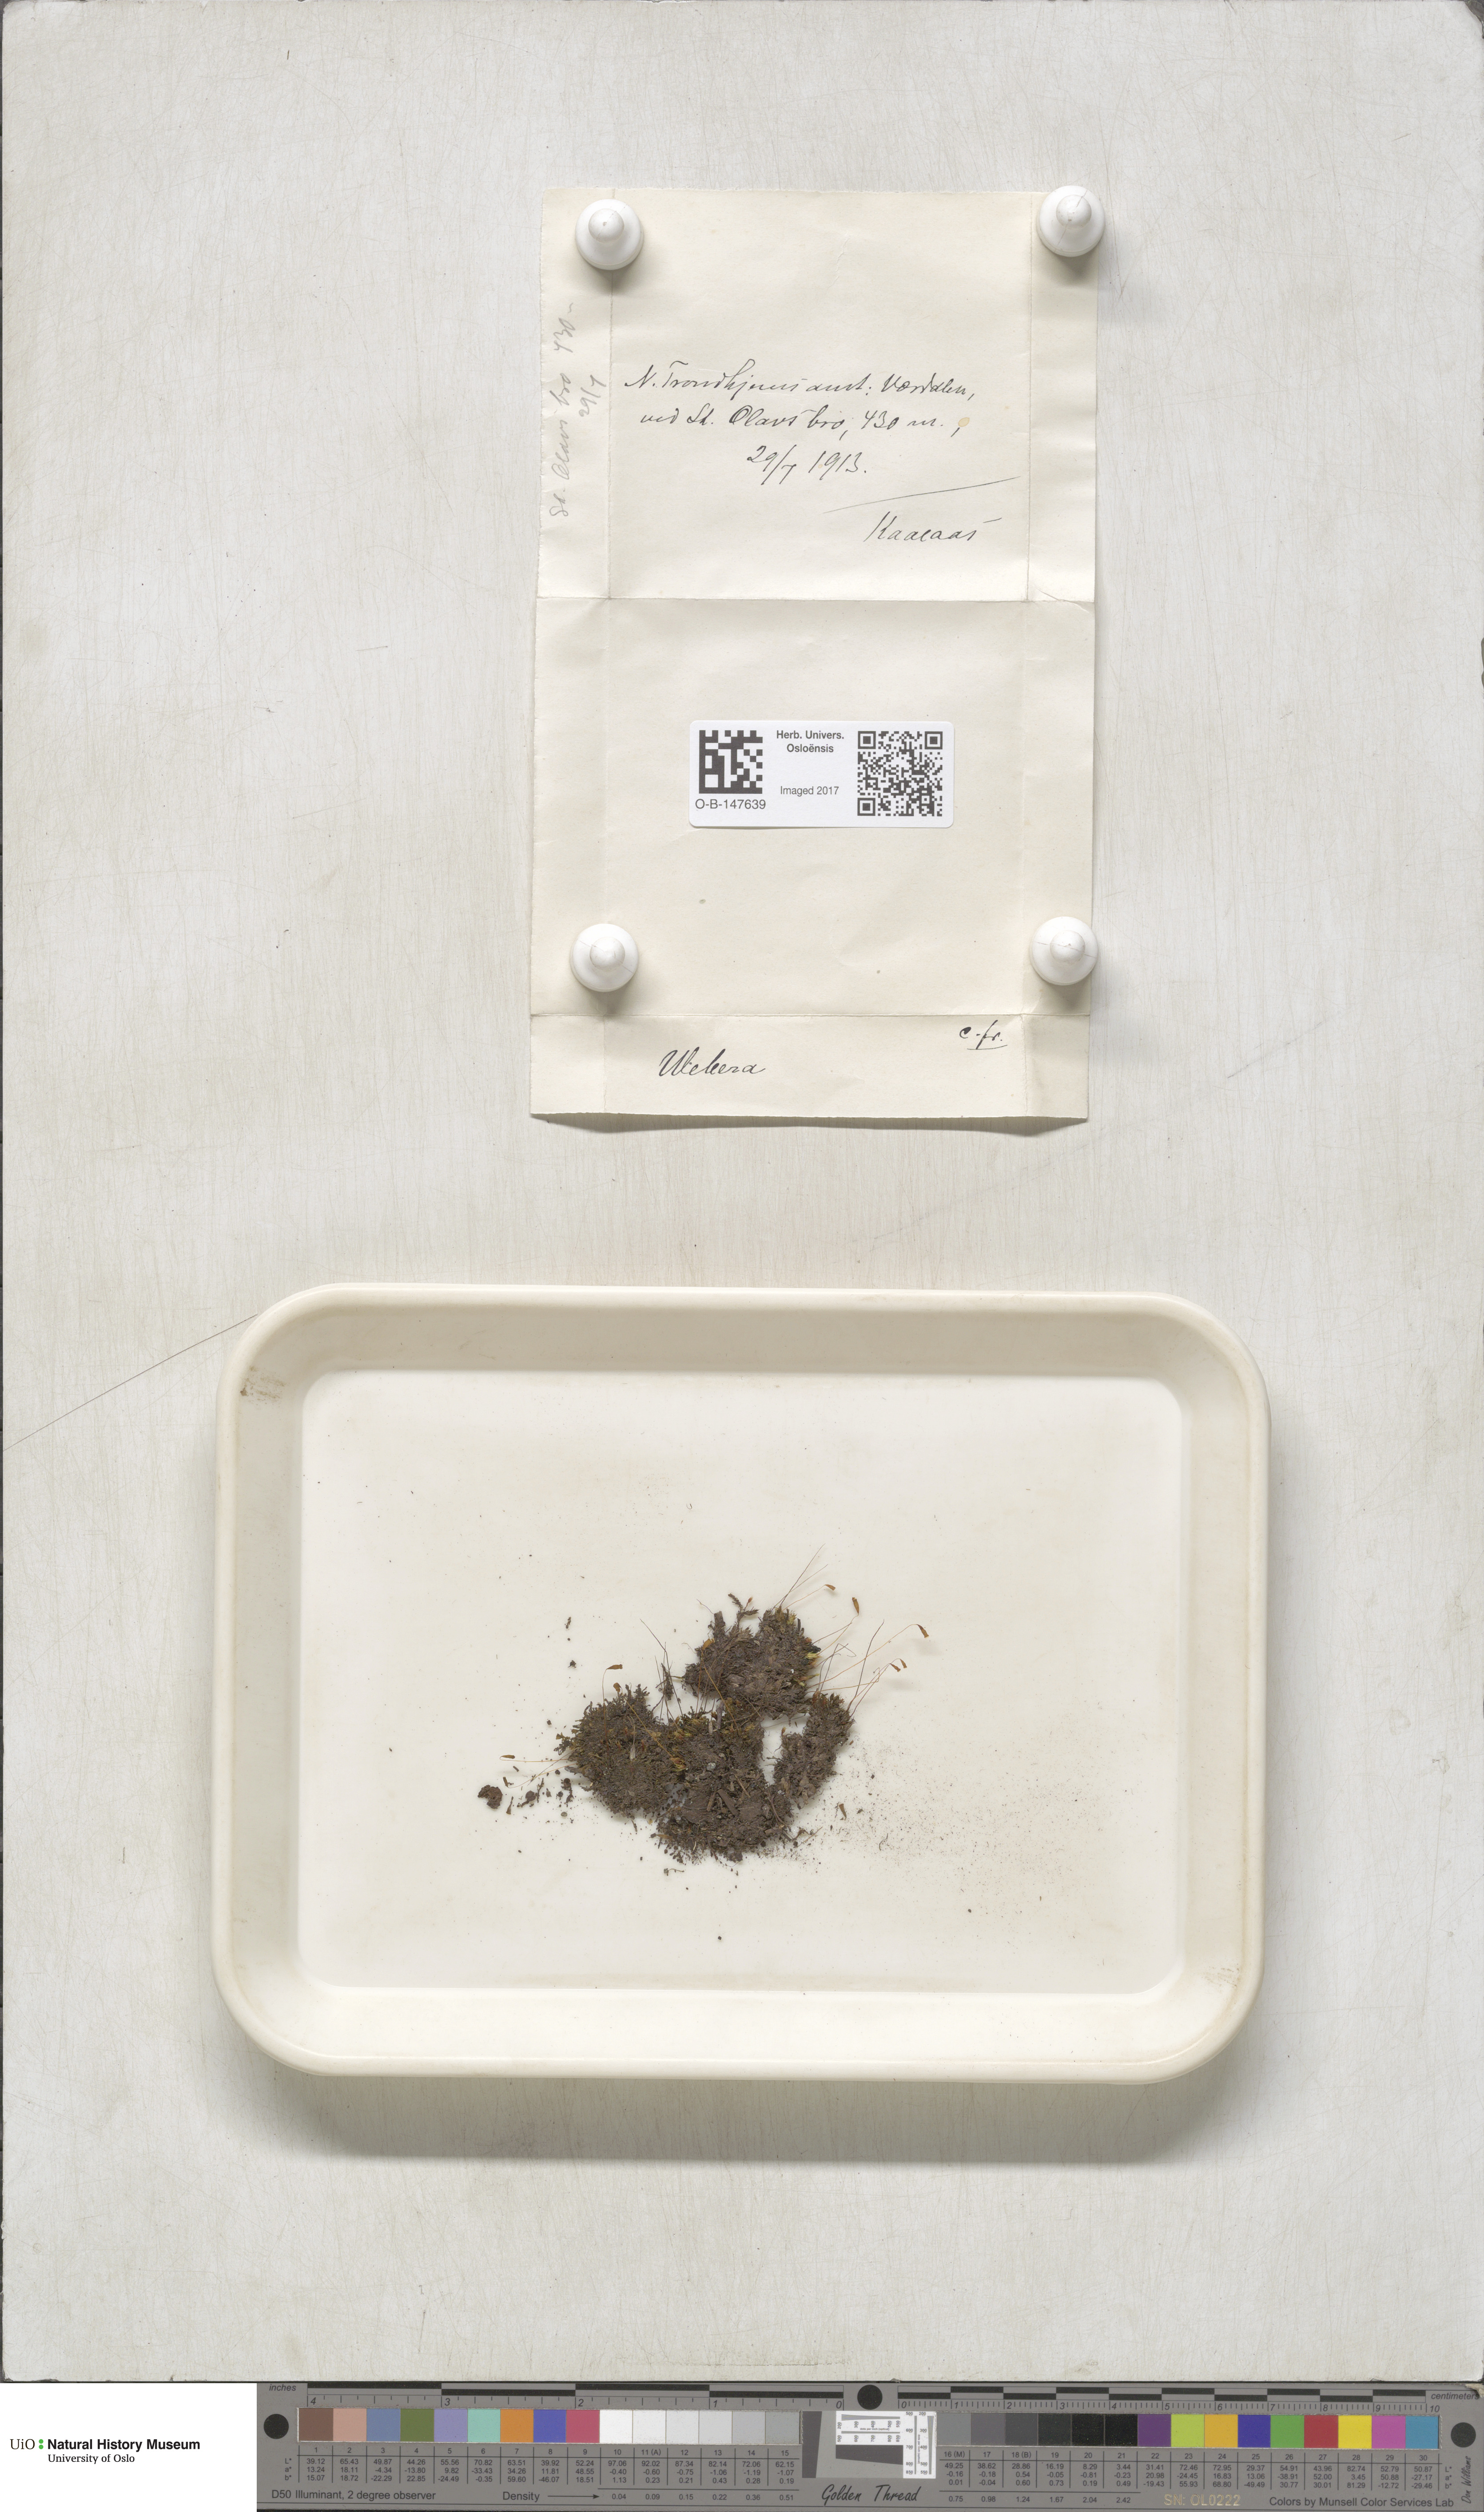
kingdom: Plantae
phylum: Bryophyta
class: Bryopsida
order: Bryales
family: Mniaceae
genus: Pohlia
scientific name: Pohlia
